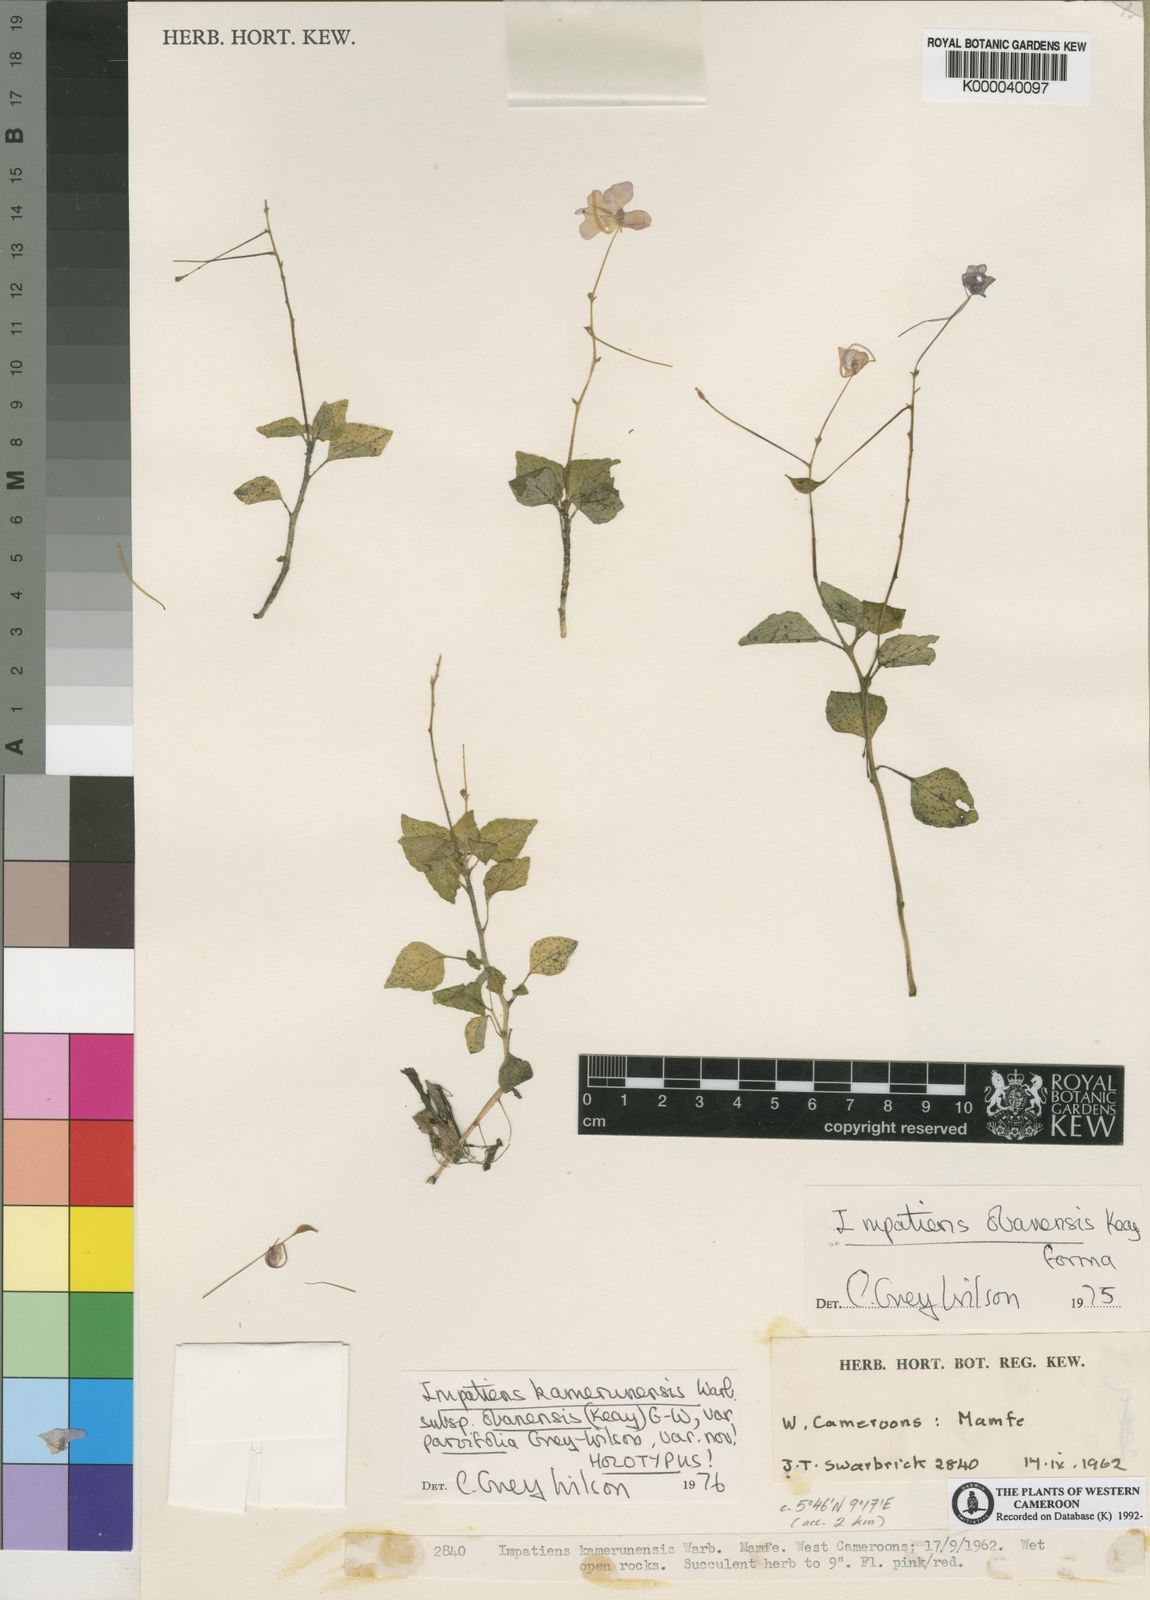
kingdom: Plantae
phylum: Tracheophyta
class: Magnoliopsida
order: Ericales
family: Balsaminaceae
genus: Impatiens
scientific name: Impatiens kamerunensis
